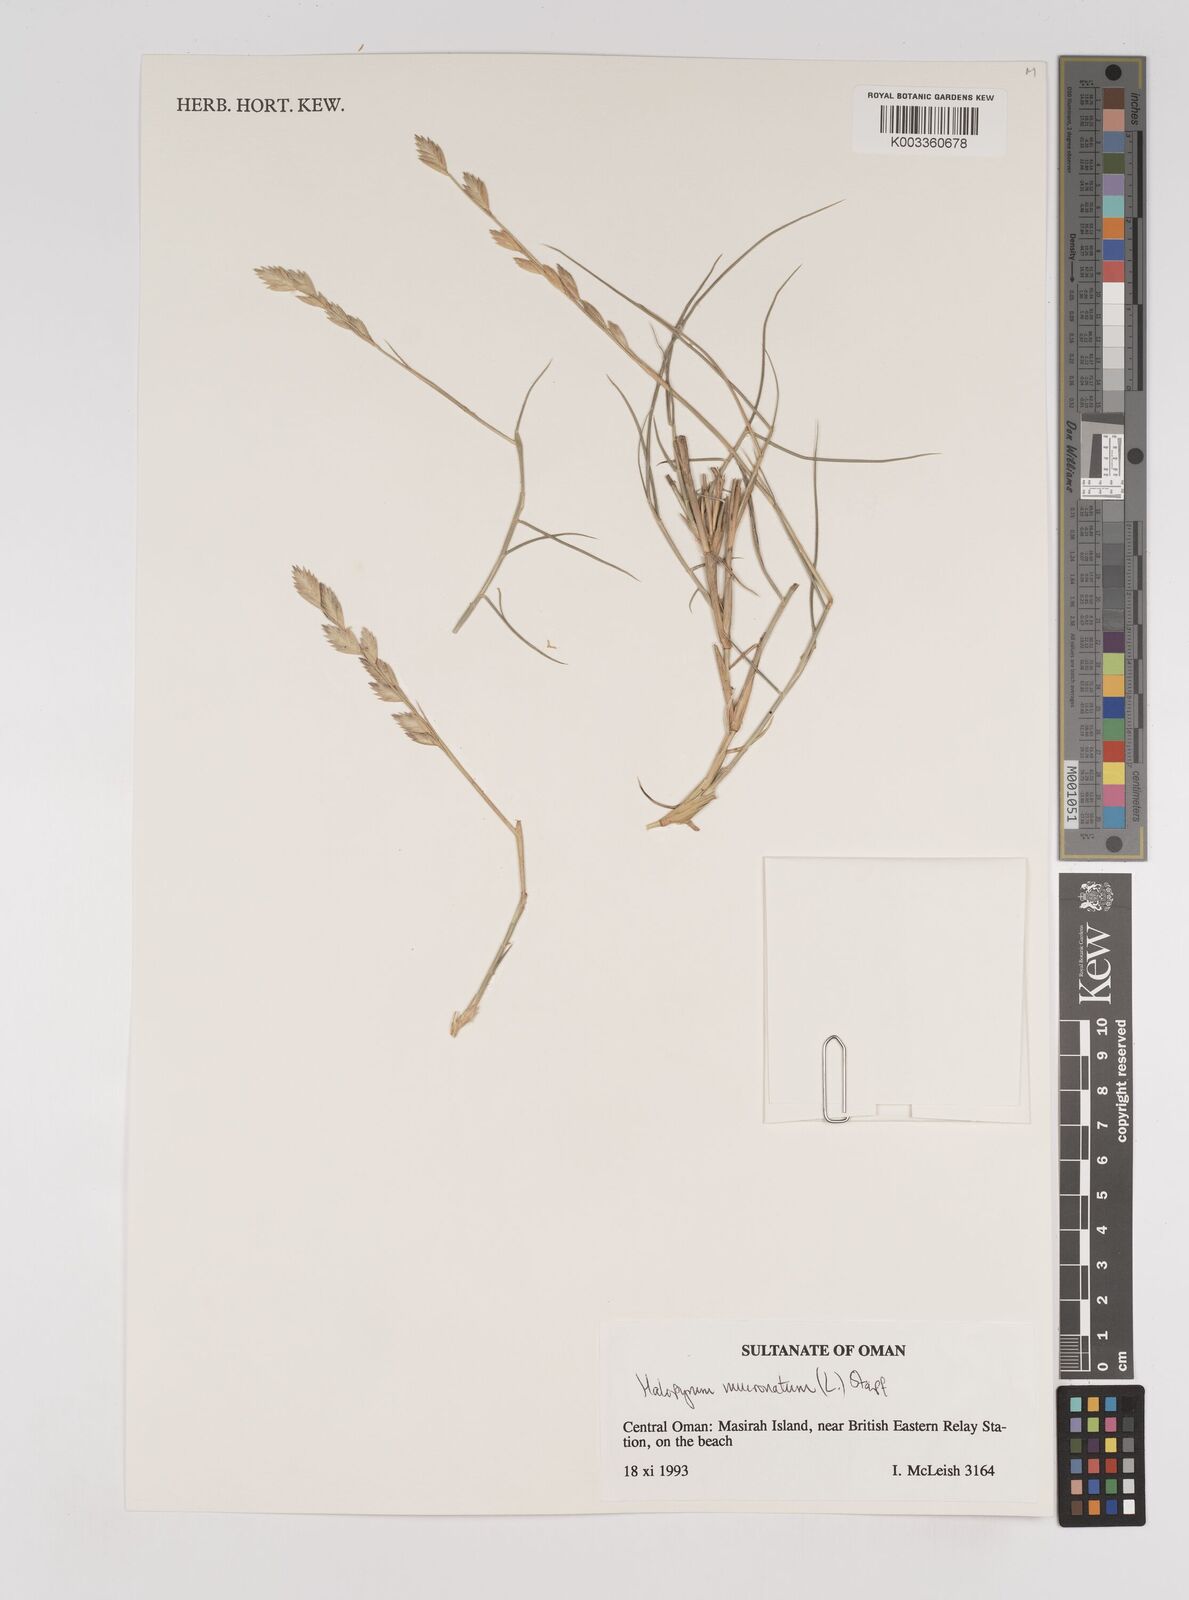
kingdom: Plantae
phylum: Tracheophyta
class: Liliopsida
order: Poales
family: Poaceae
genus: Halopyrum
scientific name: Halopyrum mucronatum
